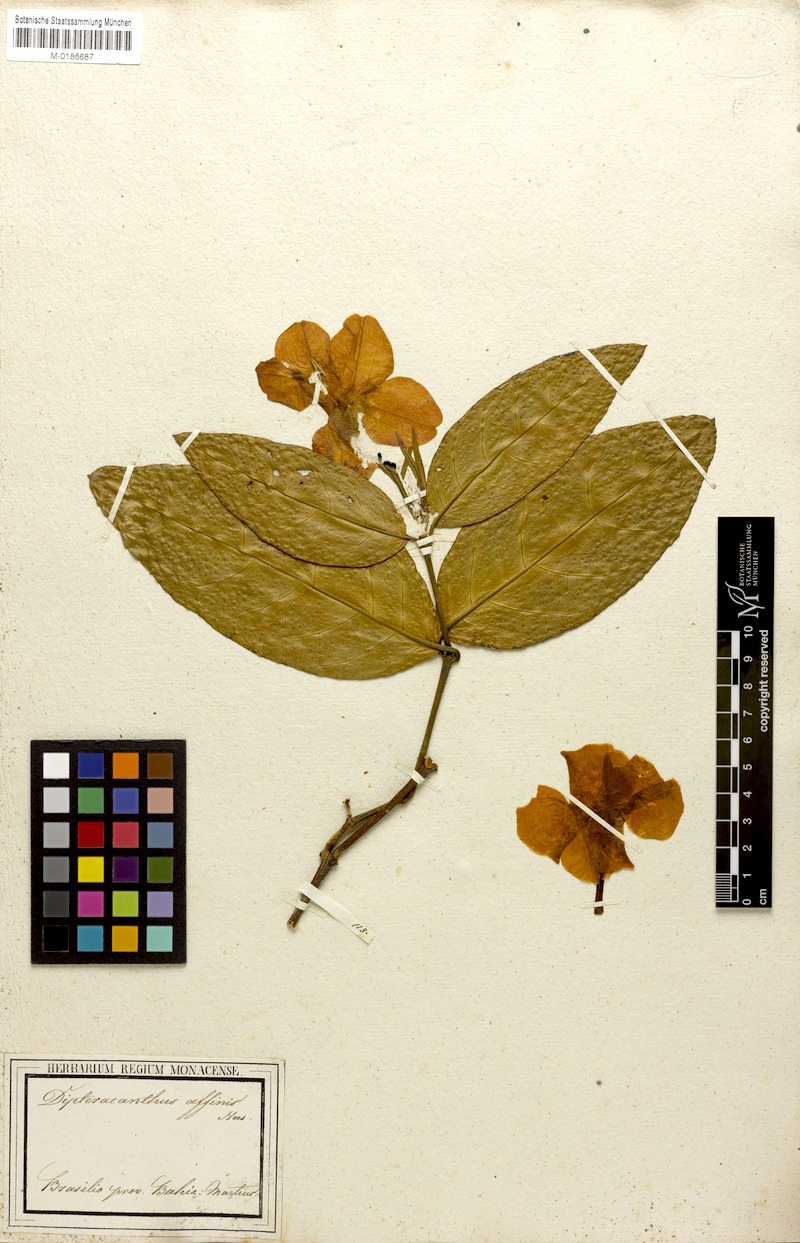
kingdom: Plantae
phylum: Tracheophyta
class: Magnoliopsida
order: Lamiales
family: Acanthaceae
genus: Ruellia
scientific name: Ruellia affinis
